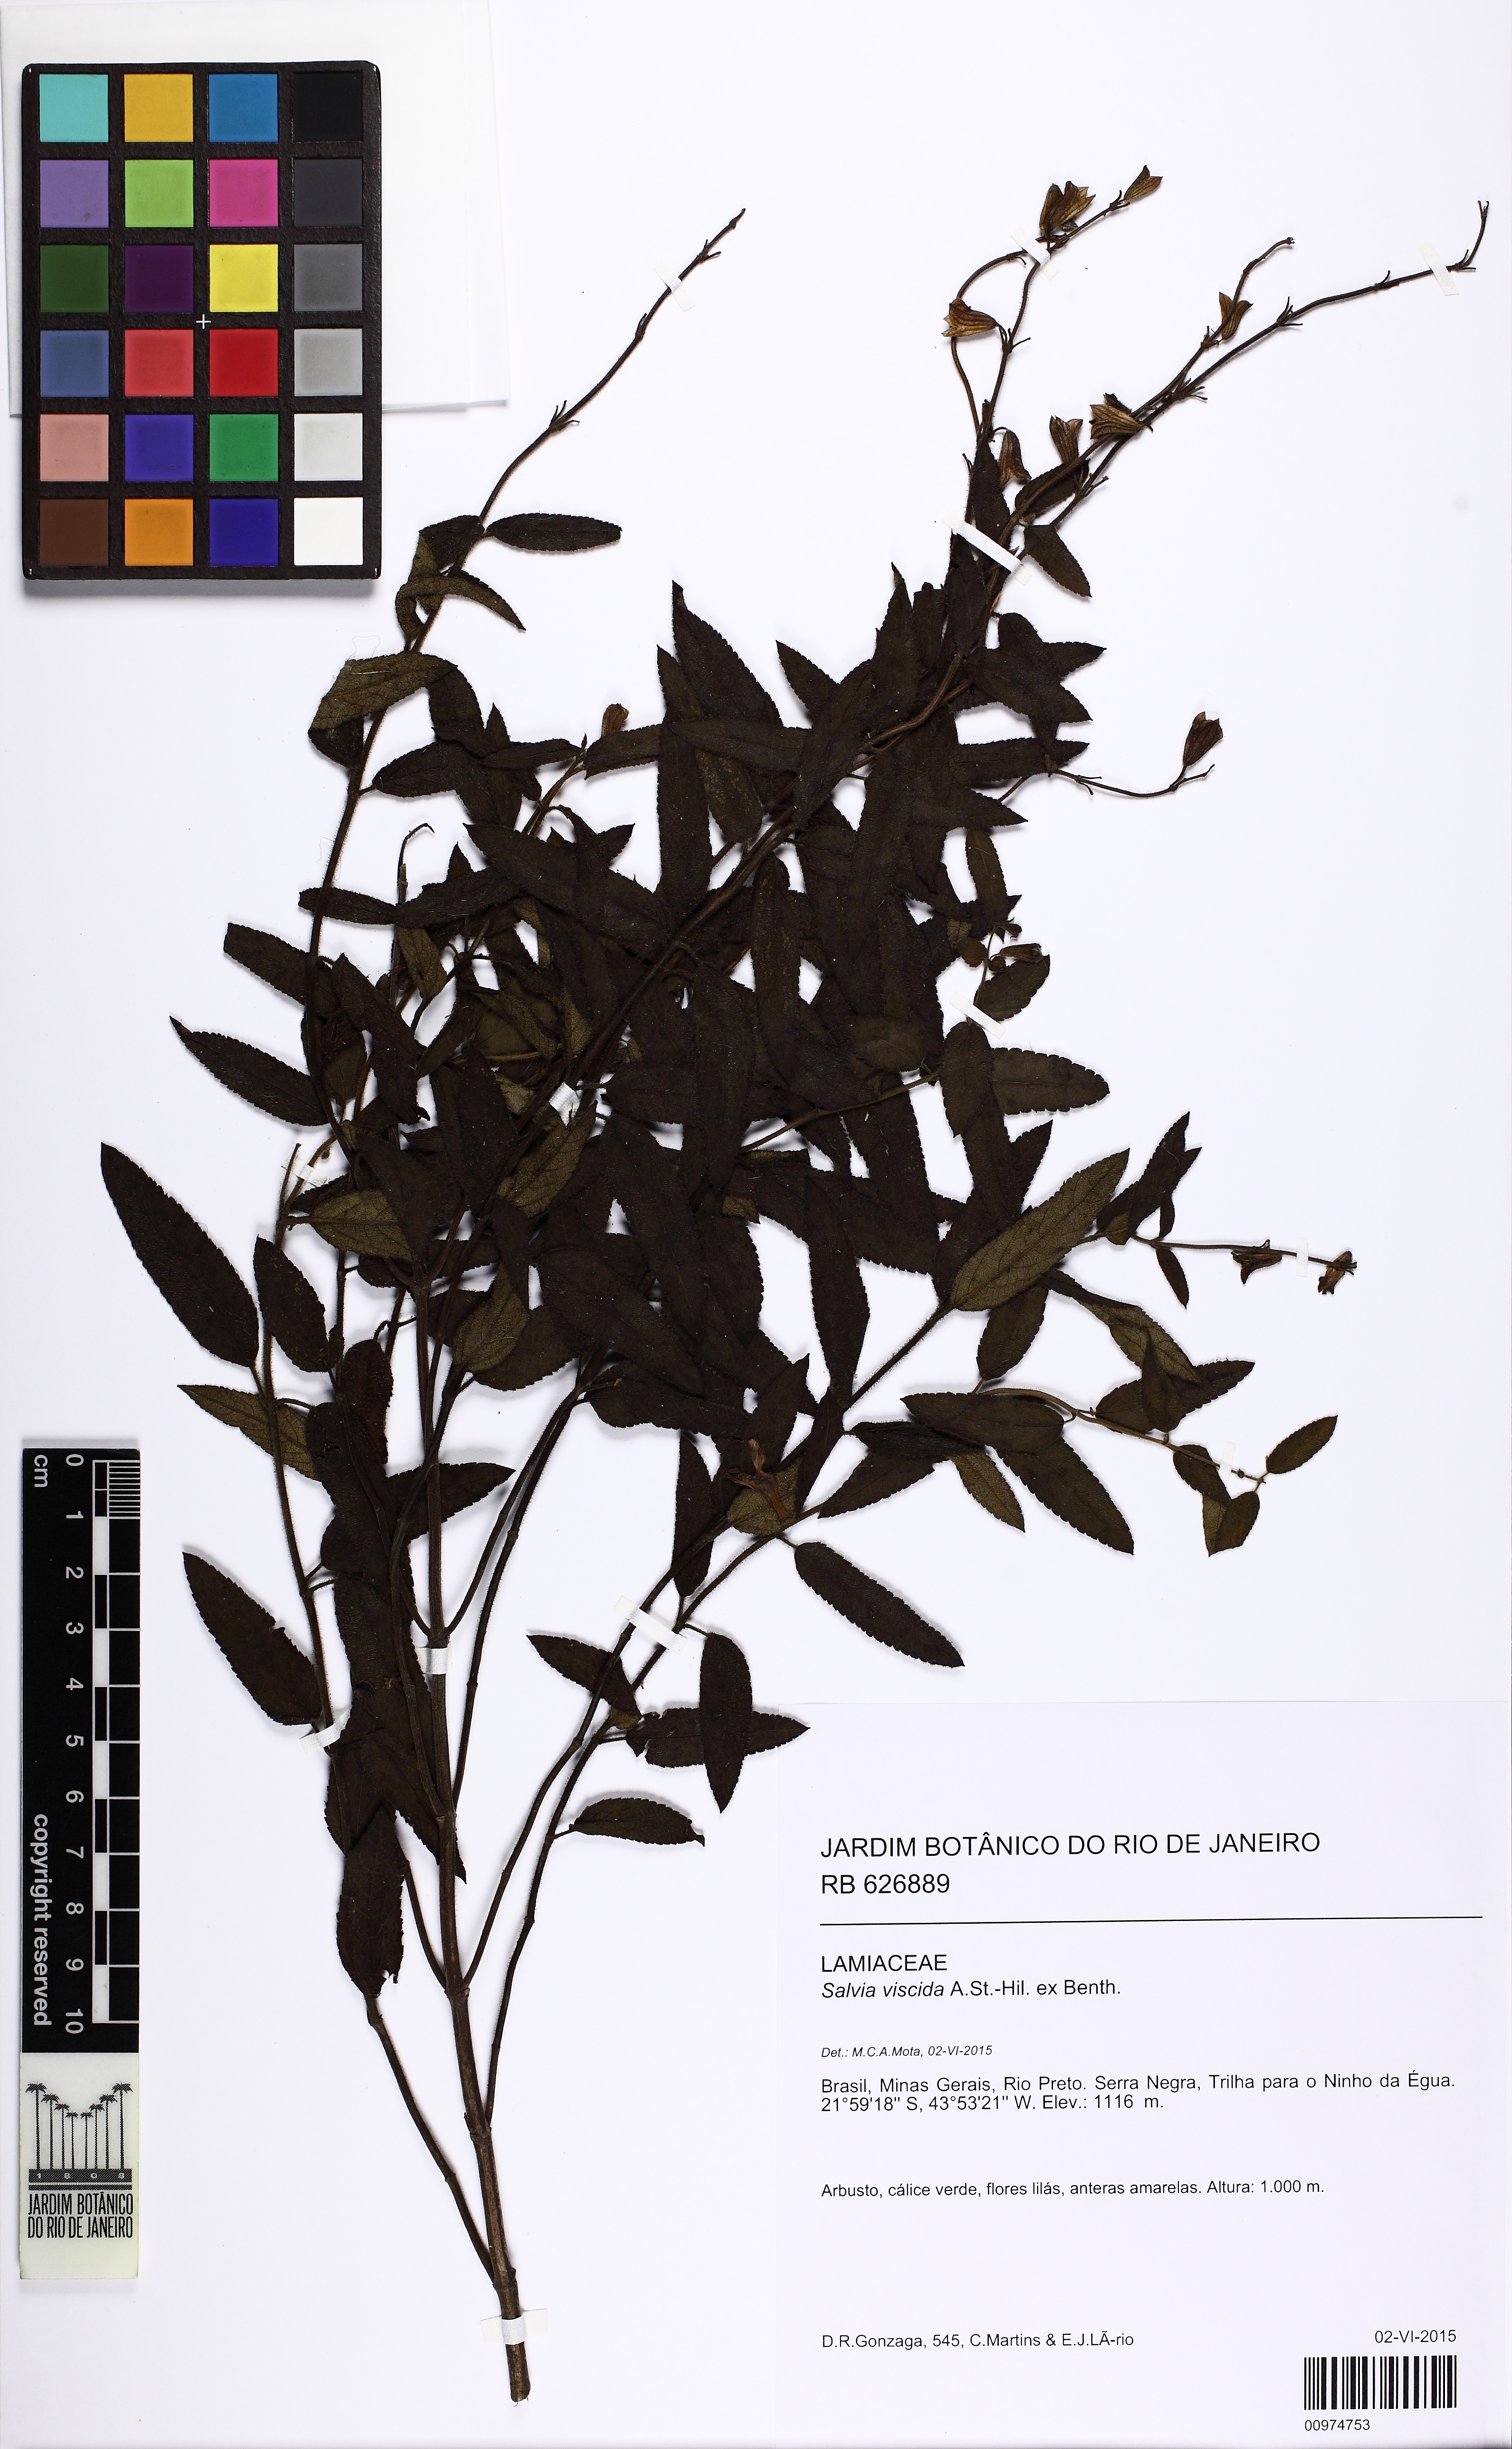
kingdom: Plantae
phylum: Tracheophyta
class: Magnoliopsida
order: Lamiales
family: Lamiaceae
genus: Salvia
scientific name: Salvia viscida
